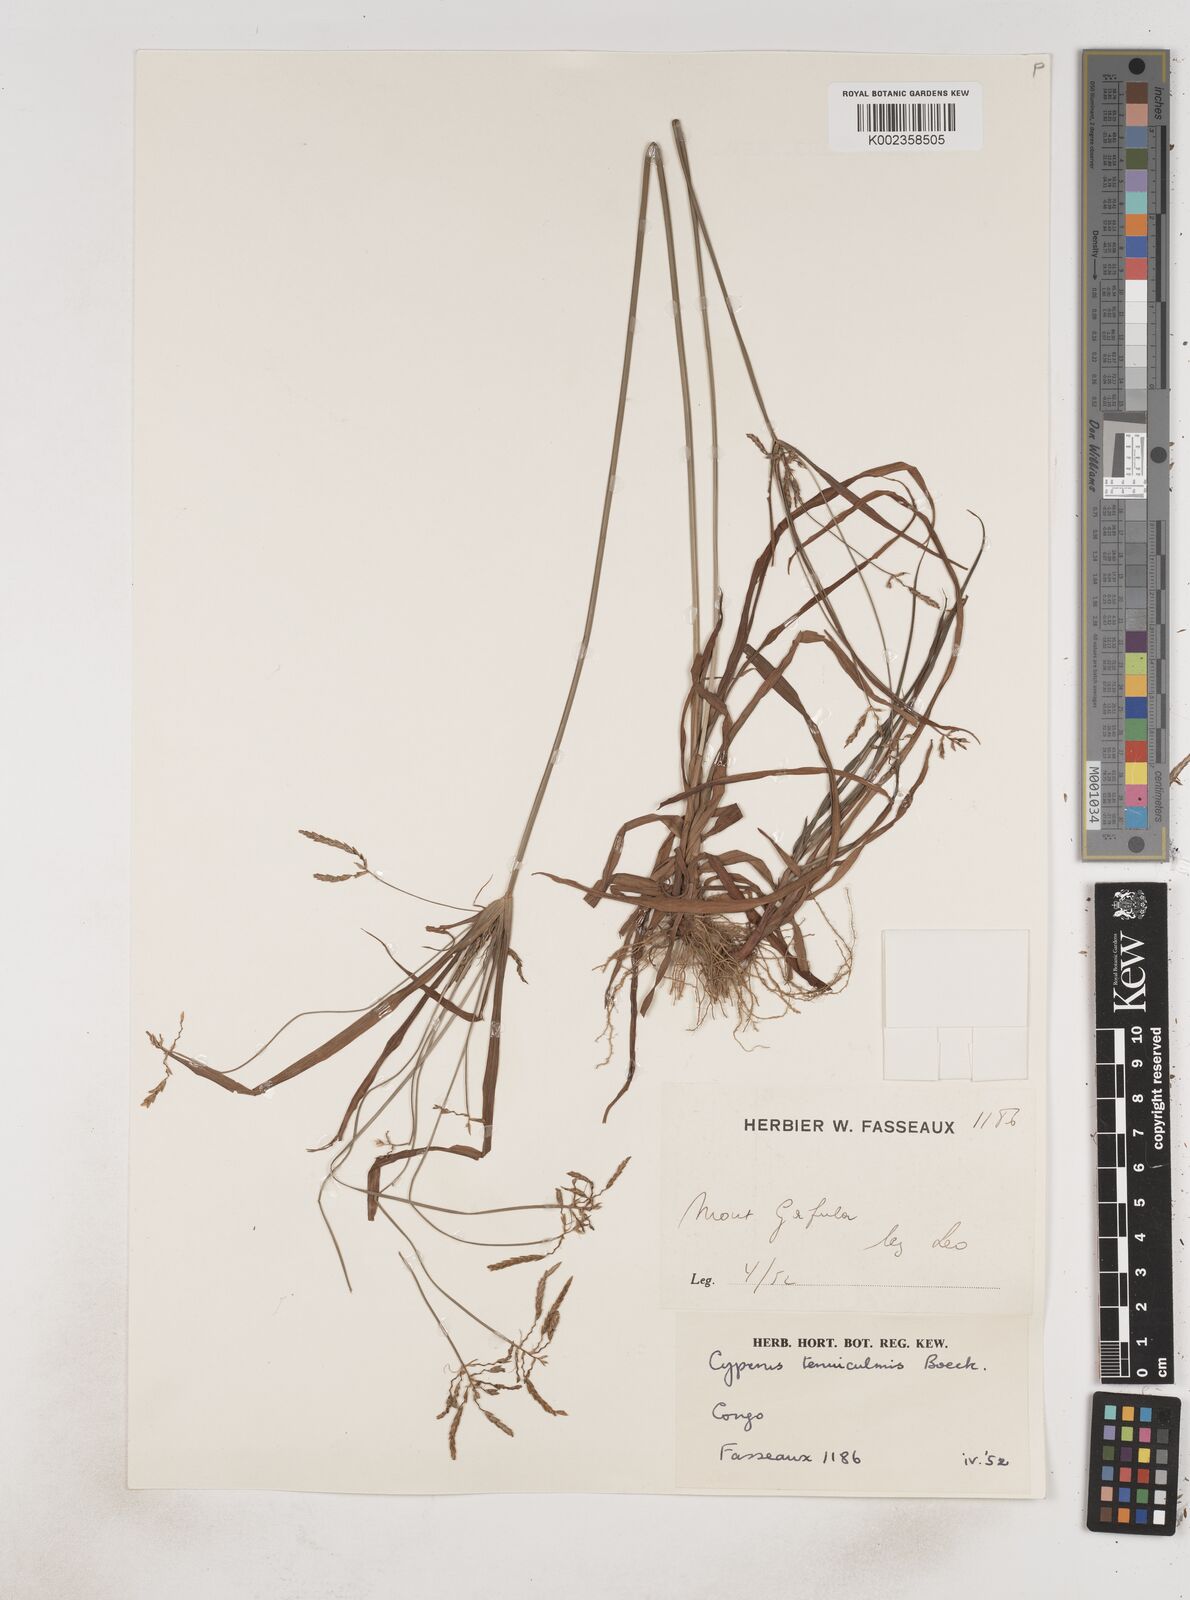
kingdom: Plantae
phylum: Tracheophyta
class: Liliopsida
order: Poales
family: Cyperaceae
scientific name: Cyperaceae
